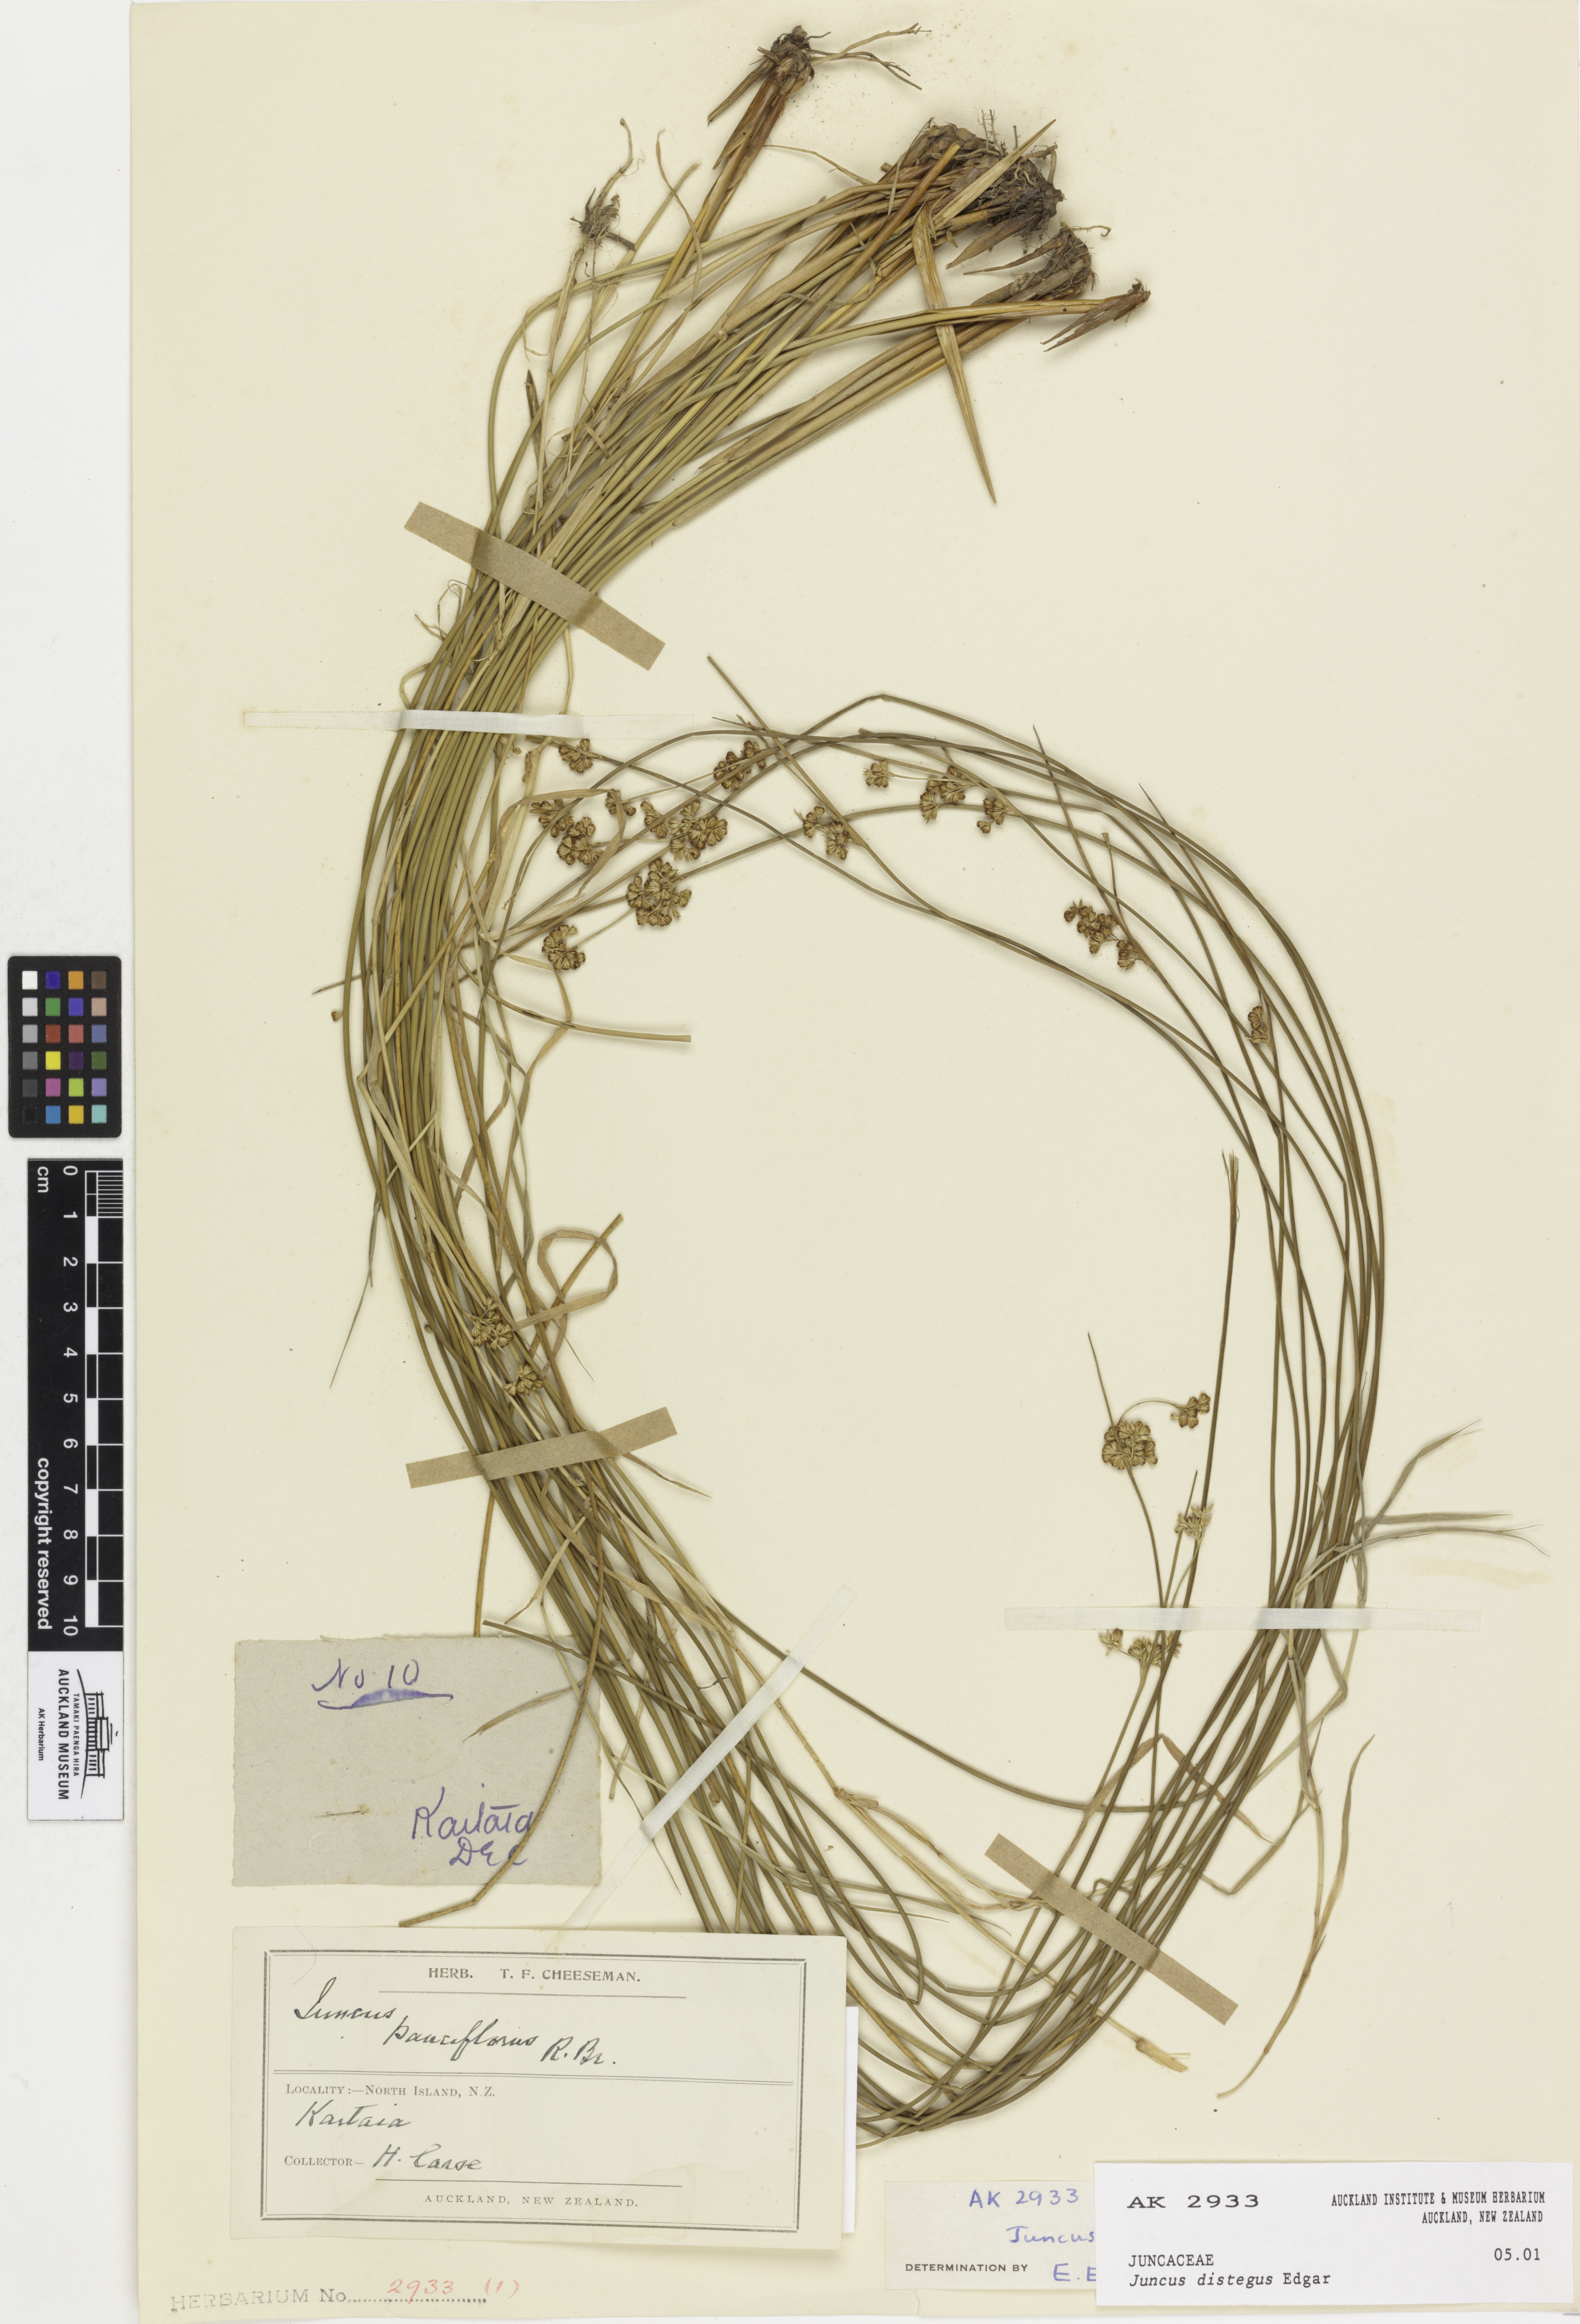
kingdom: Plantae
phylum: Tracheophyta
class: Liliopsida
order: Poales
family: Juncaceae
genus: Juncus
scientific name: Juncus distegus
